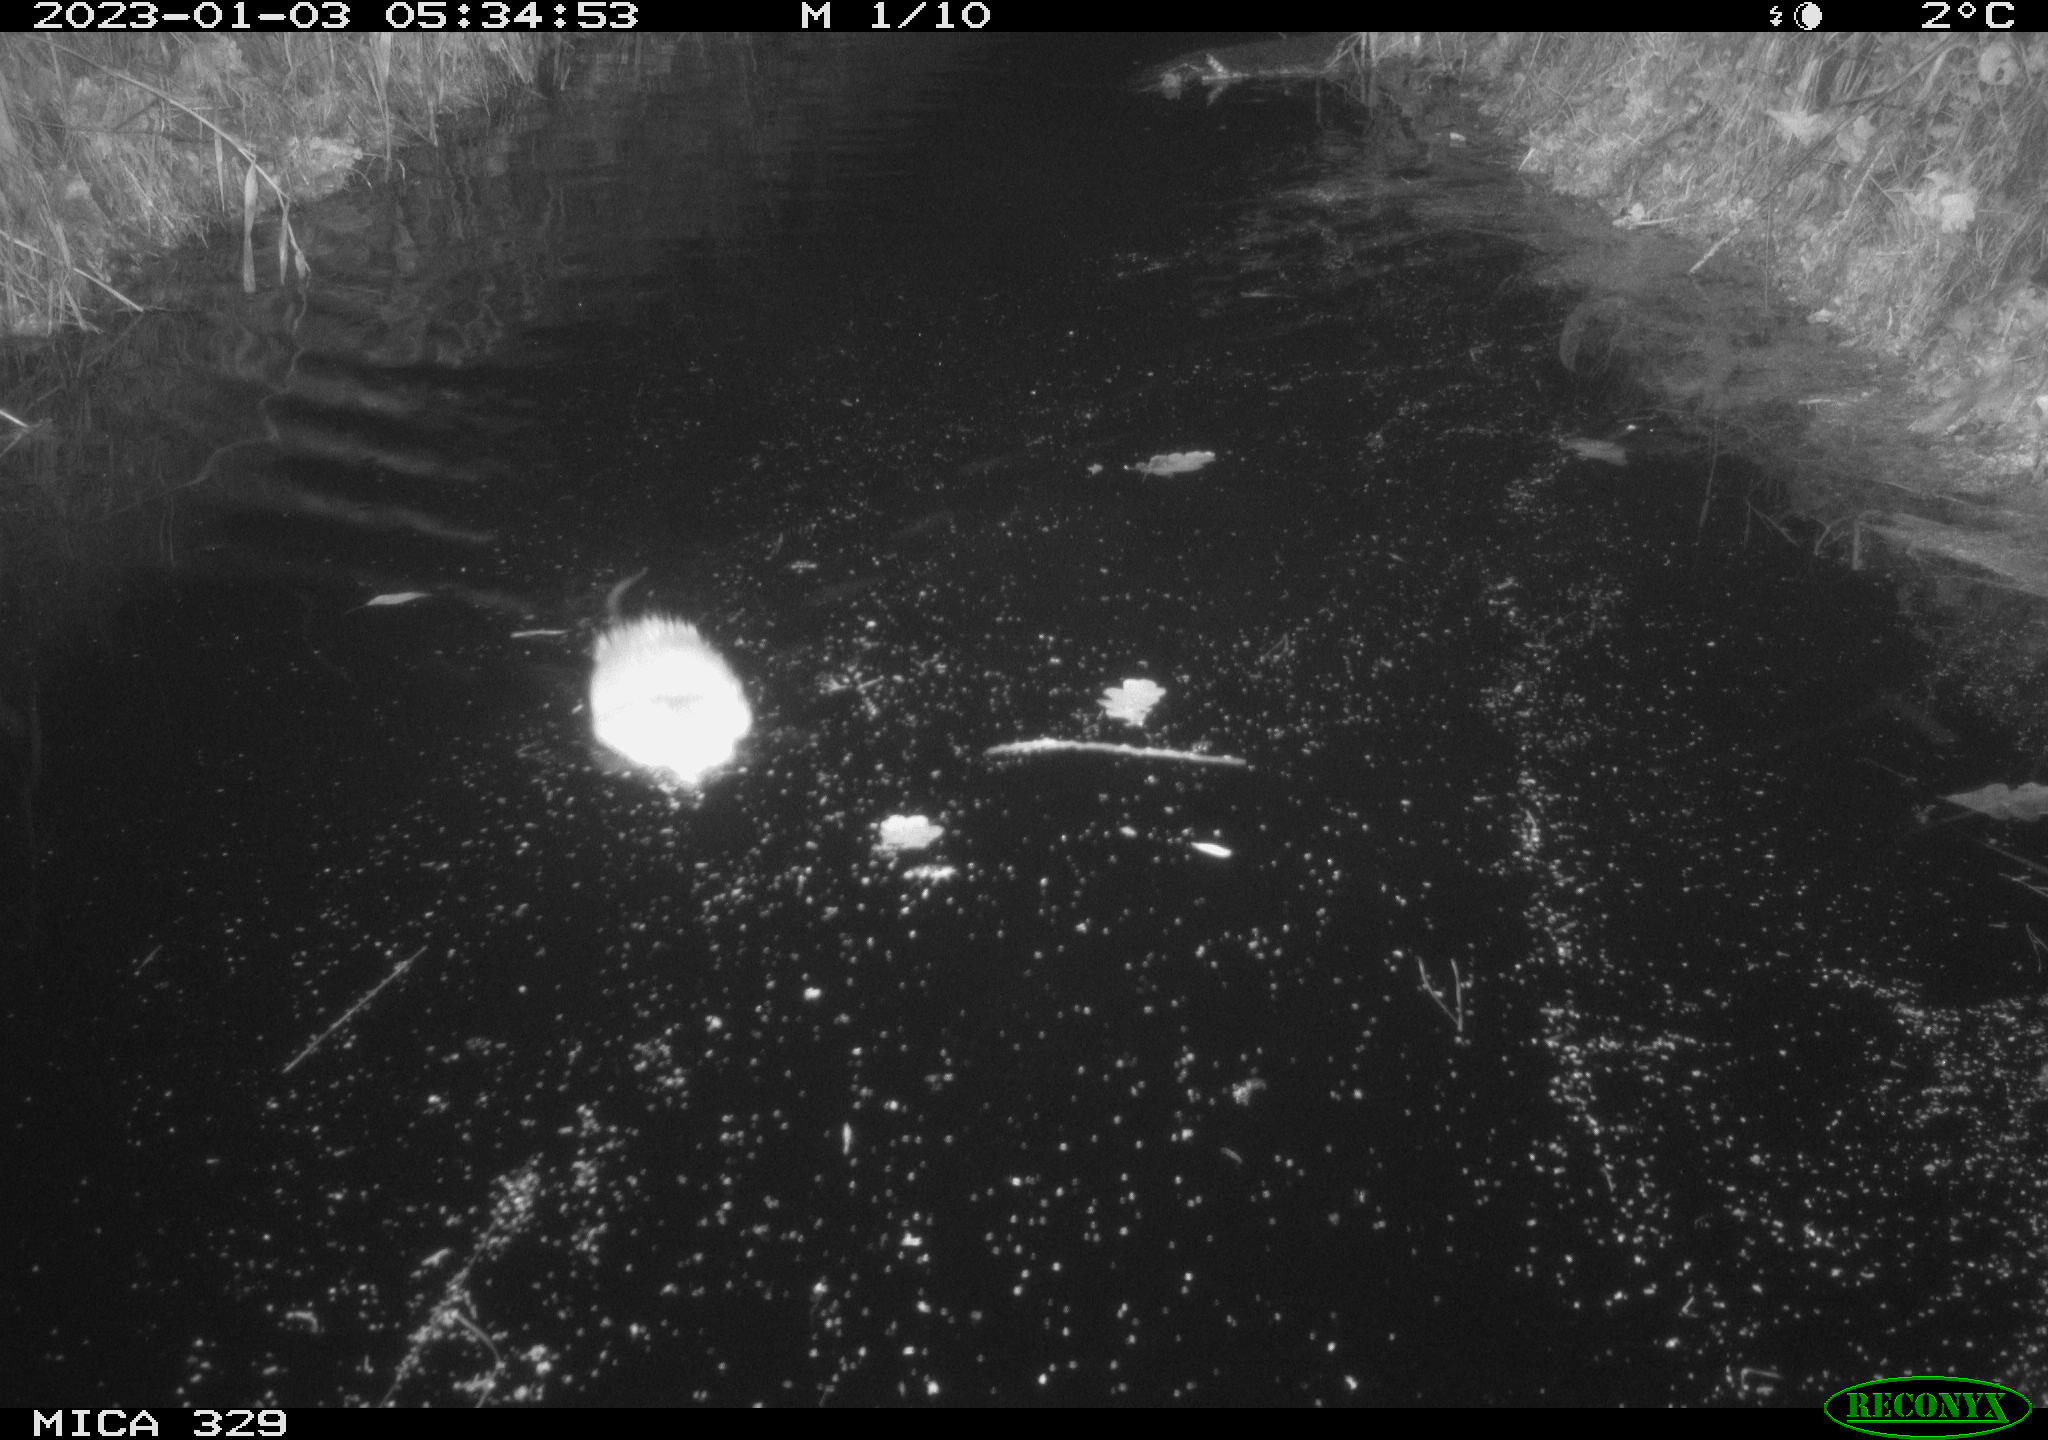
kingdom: Animalia
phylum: Chordata
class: Mammalia
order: Rodentia
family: Cricetidae
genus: Ondatra
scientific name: Ondatra zibethicus
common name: Muskrat
